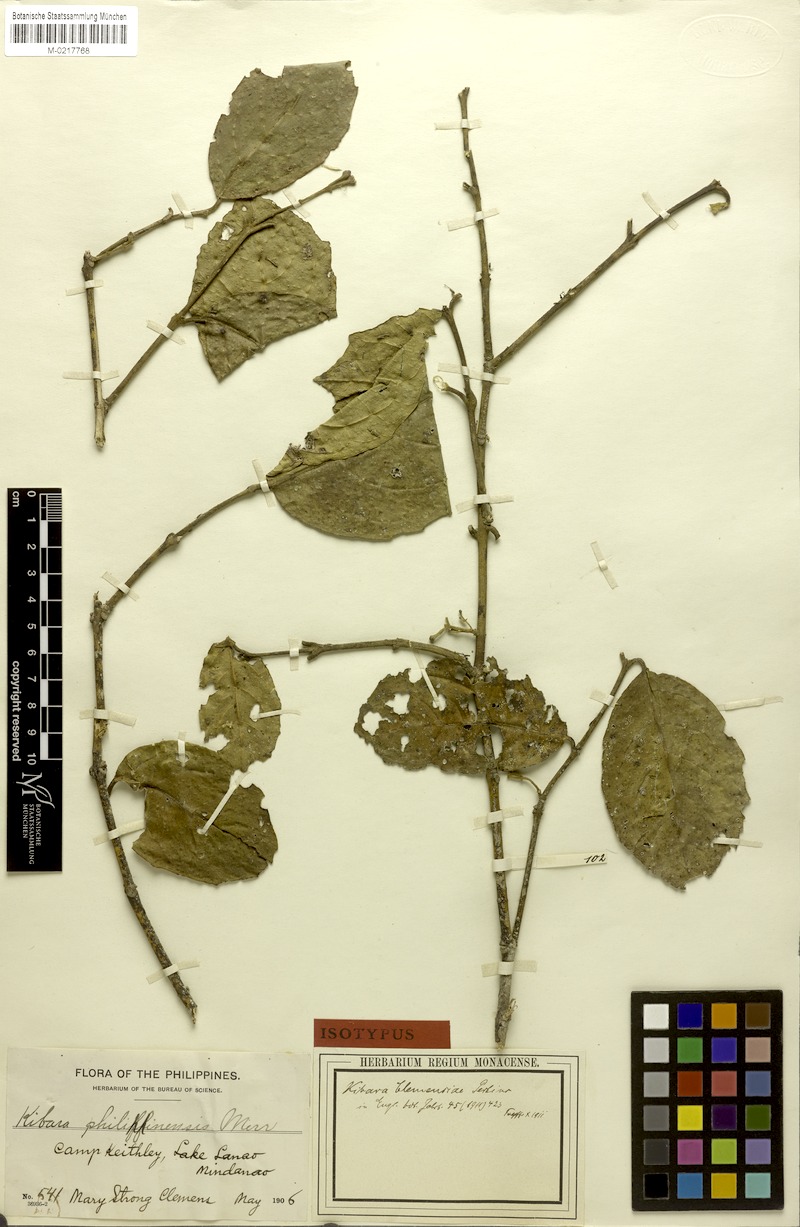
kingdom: Plantae
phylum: Tracheophyta
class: Magnoliopsida
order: Laurales
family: Monimiaceae
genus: Kibara
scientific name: Kibara coriacea
